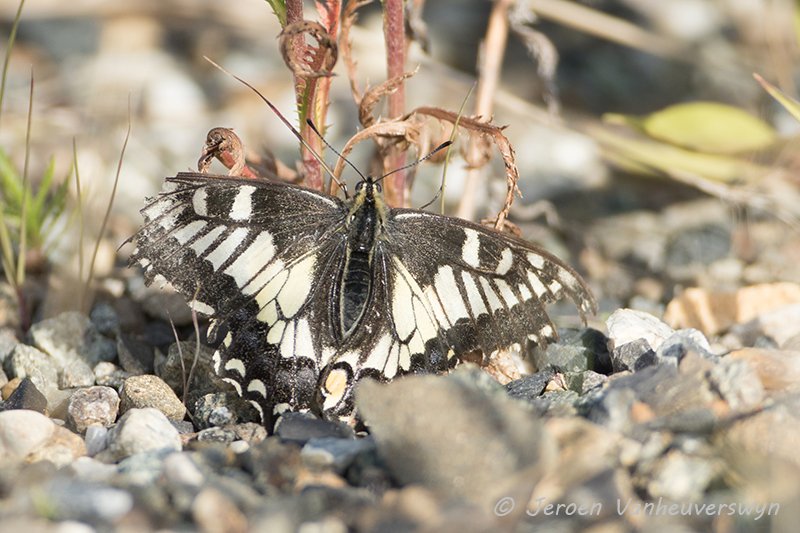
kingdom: Animalia
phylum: Arthropoda
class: Insecta
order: Lepidoptera
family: Papilionidae
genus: Papilio
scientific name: Papilio machaon
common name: Old World Swallowtail
